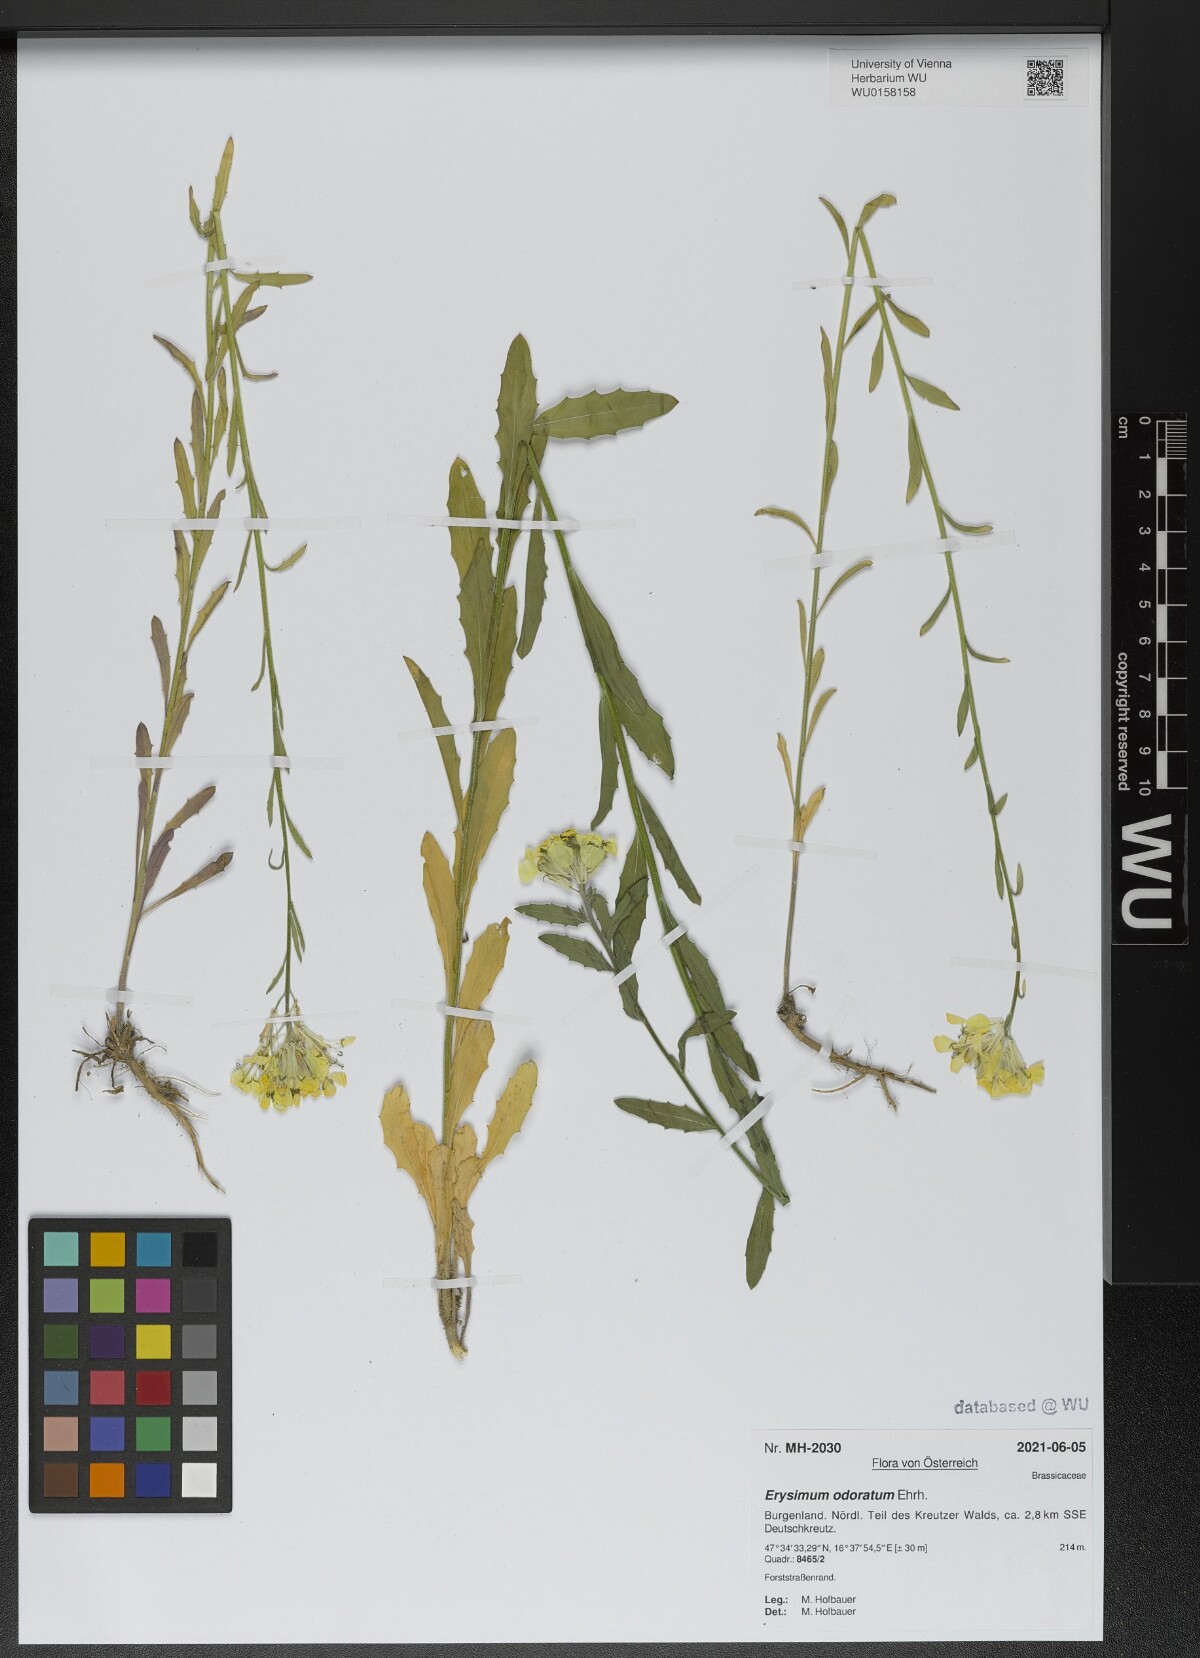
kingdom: Plantae
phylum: Tracheophyta
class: Magnoliopsida
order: Brassicales
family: Brassicaceae
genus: Erysimum
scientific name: Erysimum odoratum
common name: Smelly wallflower
